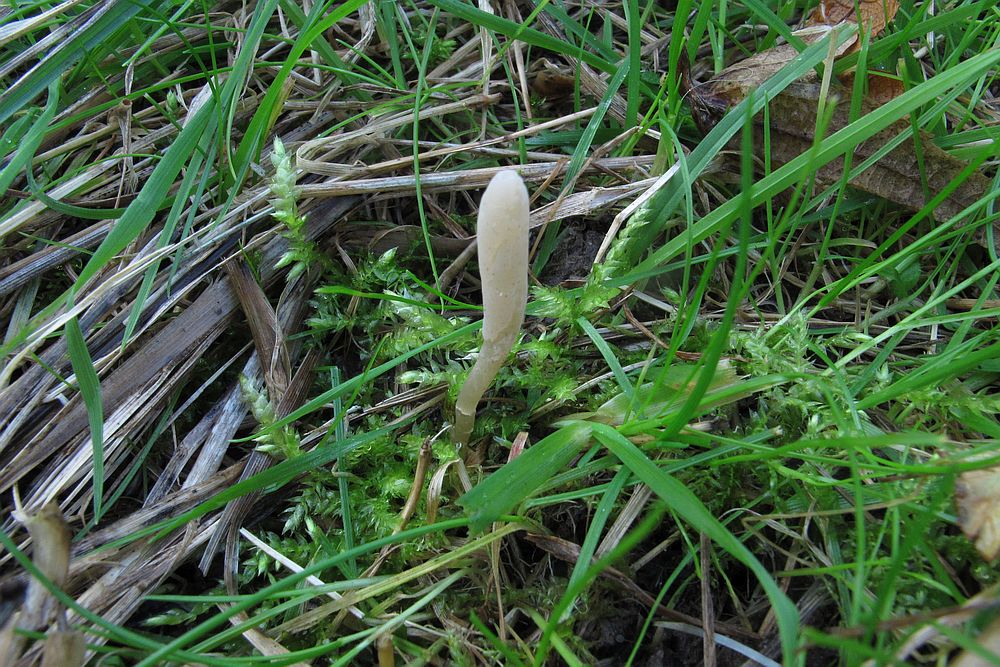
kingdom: Fungi
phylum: Basidiomycota
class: Agaricomycetes
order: Agaricales
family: Clavariaceae
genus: Clavaria
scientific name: Clavaria falcata
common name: hvid køllesvamp
